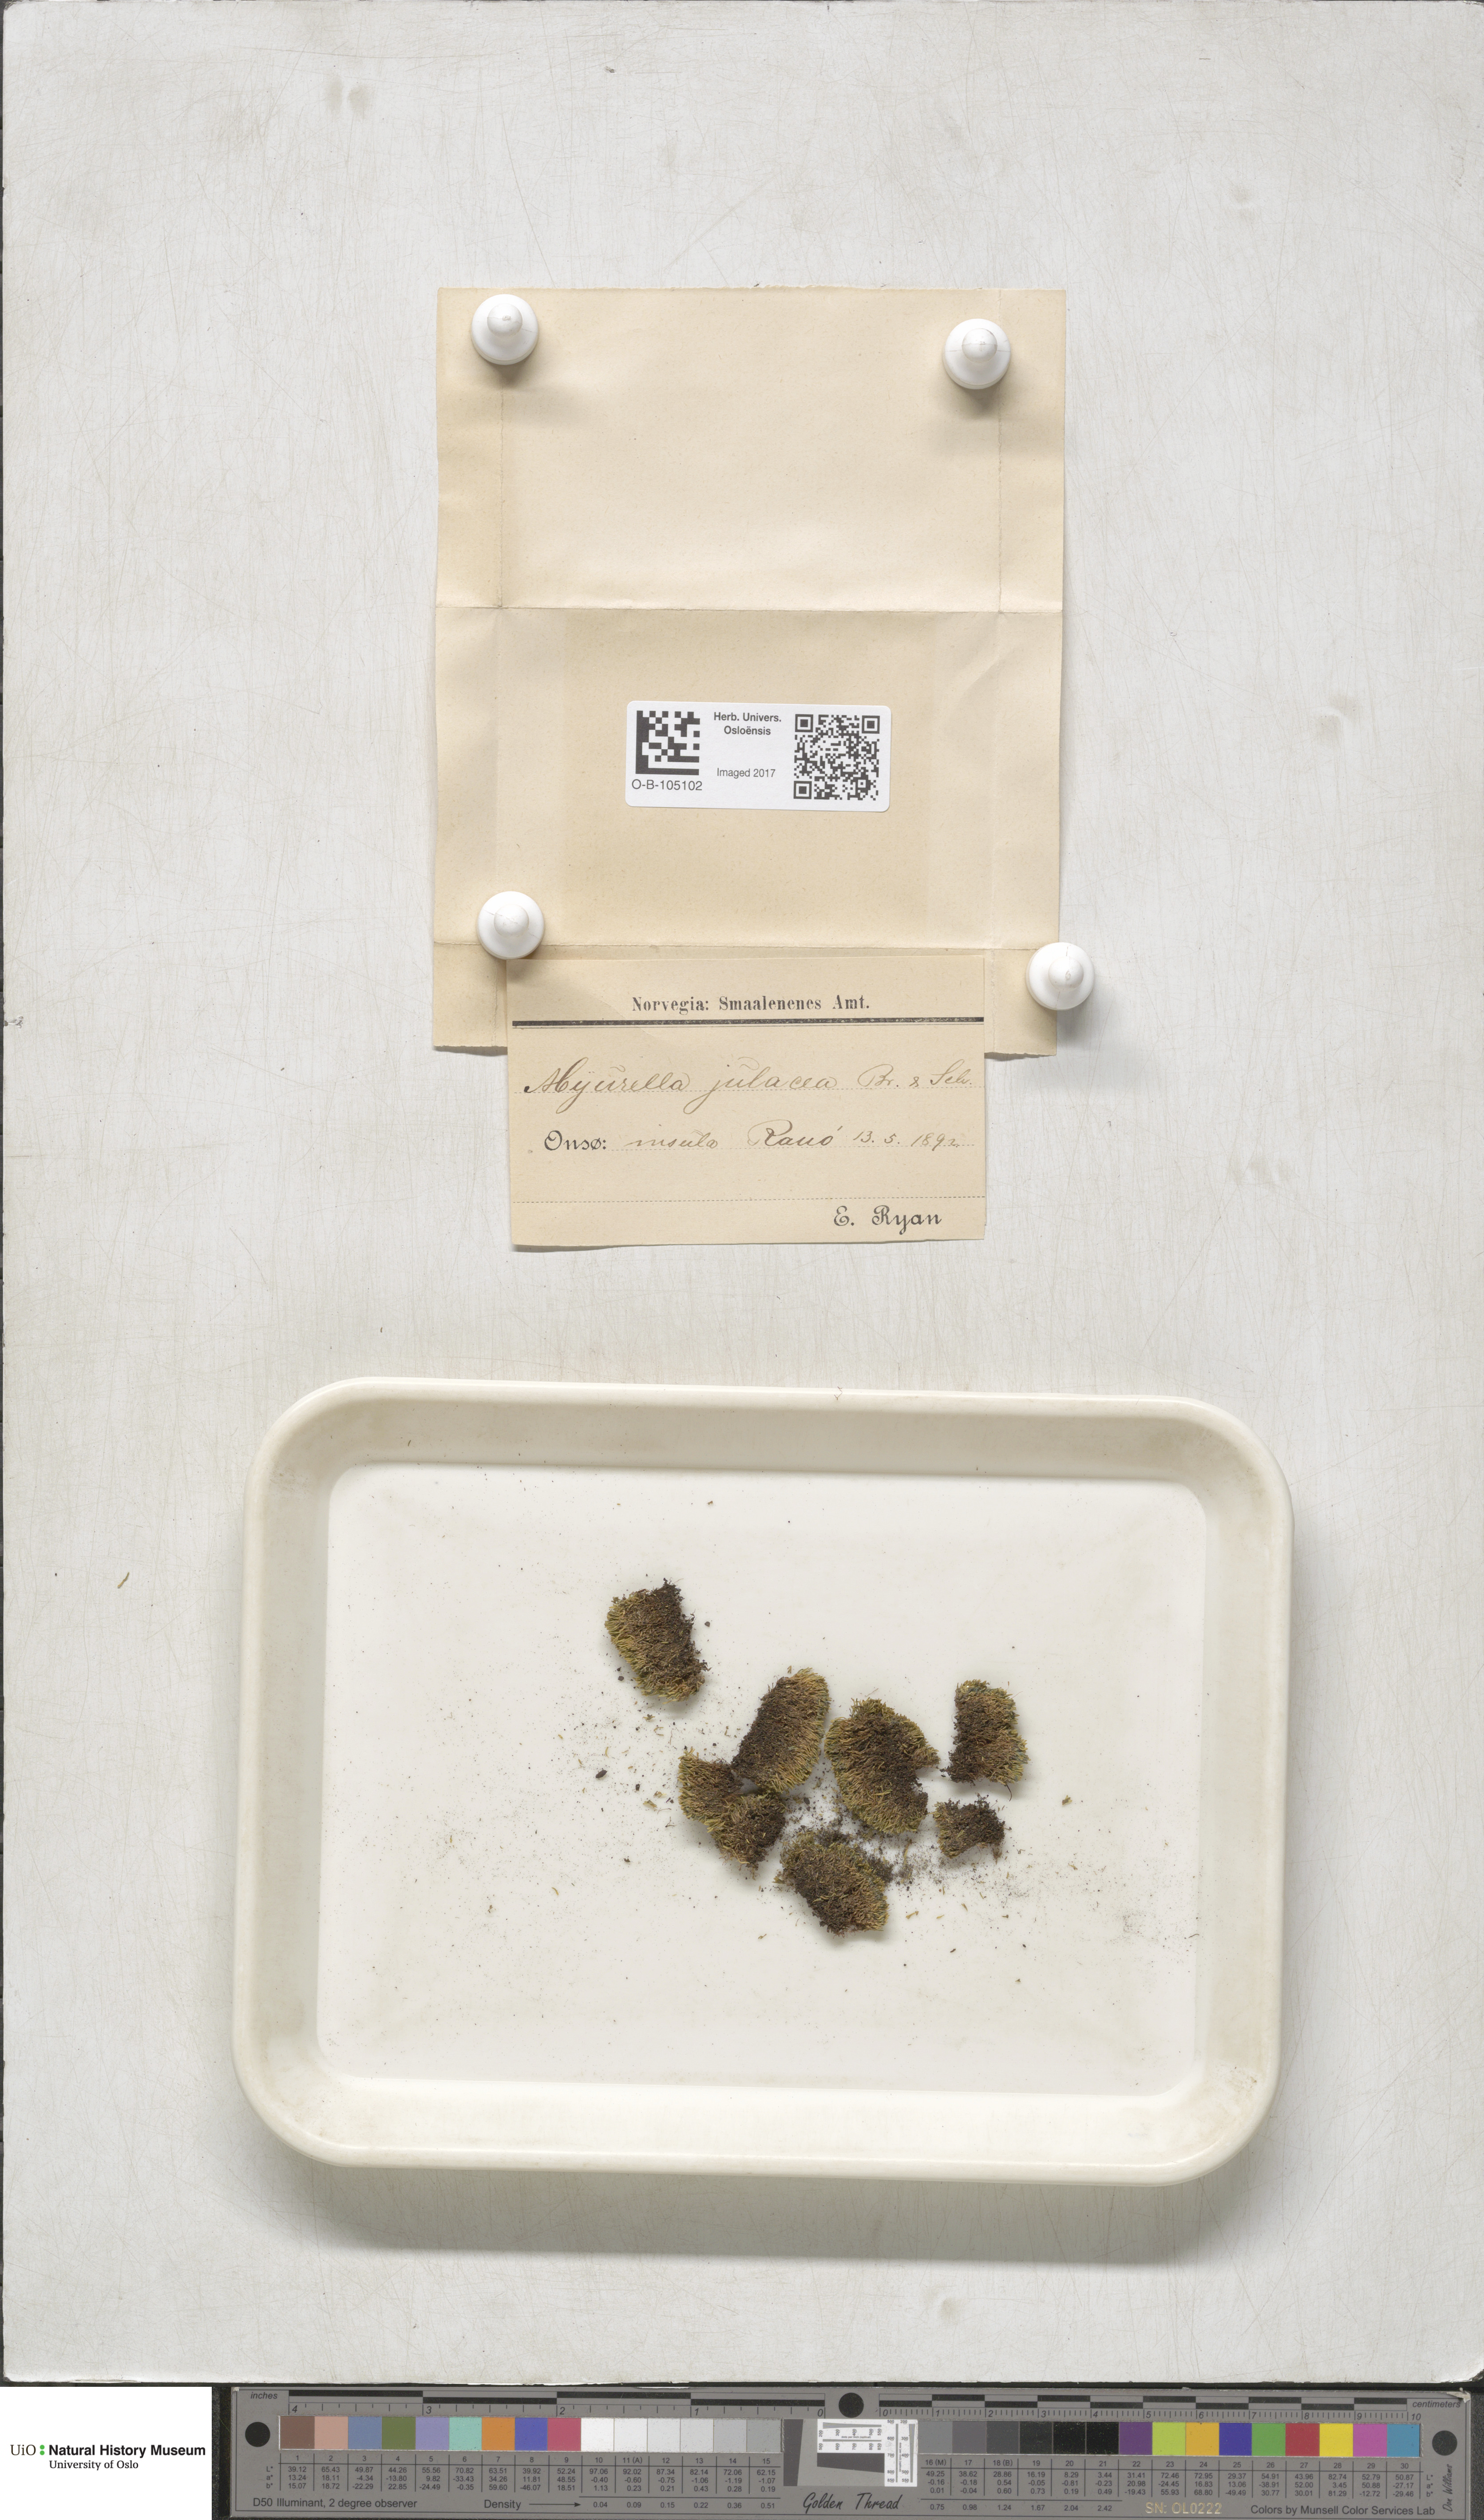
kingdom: Plantae
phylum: Bryophyta
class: Bryopsida
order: Hypnales
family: Plagiotheciaceae
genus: Myurella
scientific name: Myurella julacea
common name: Small mousetail moss
